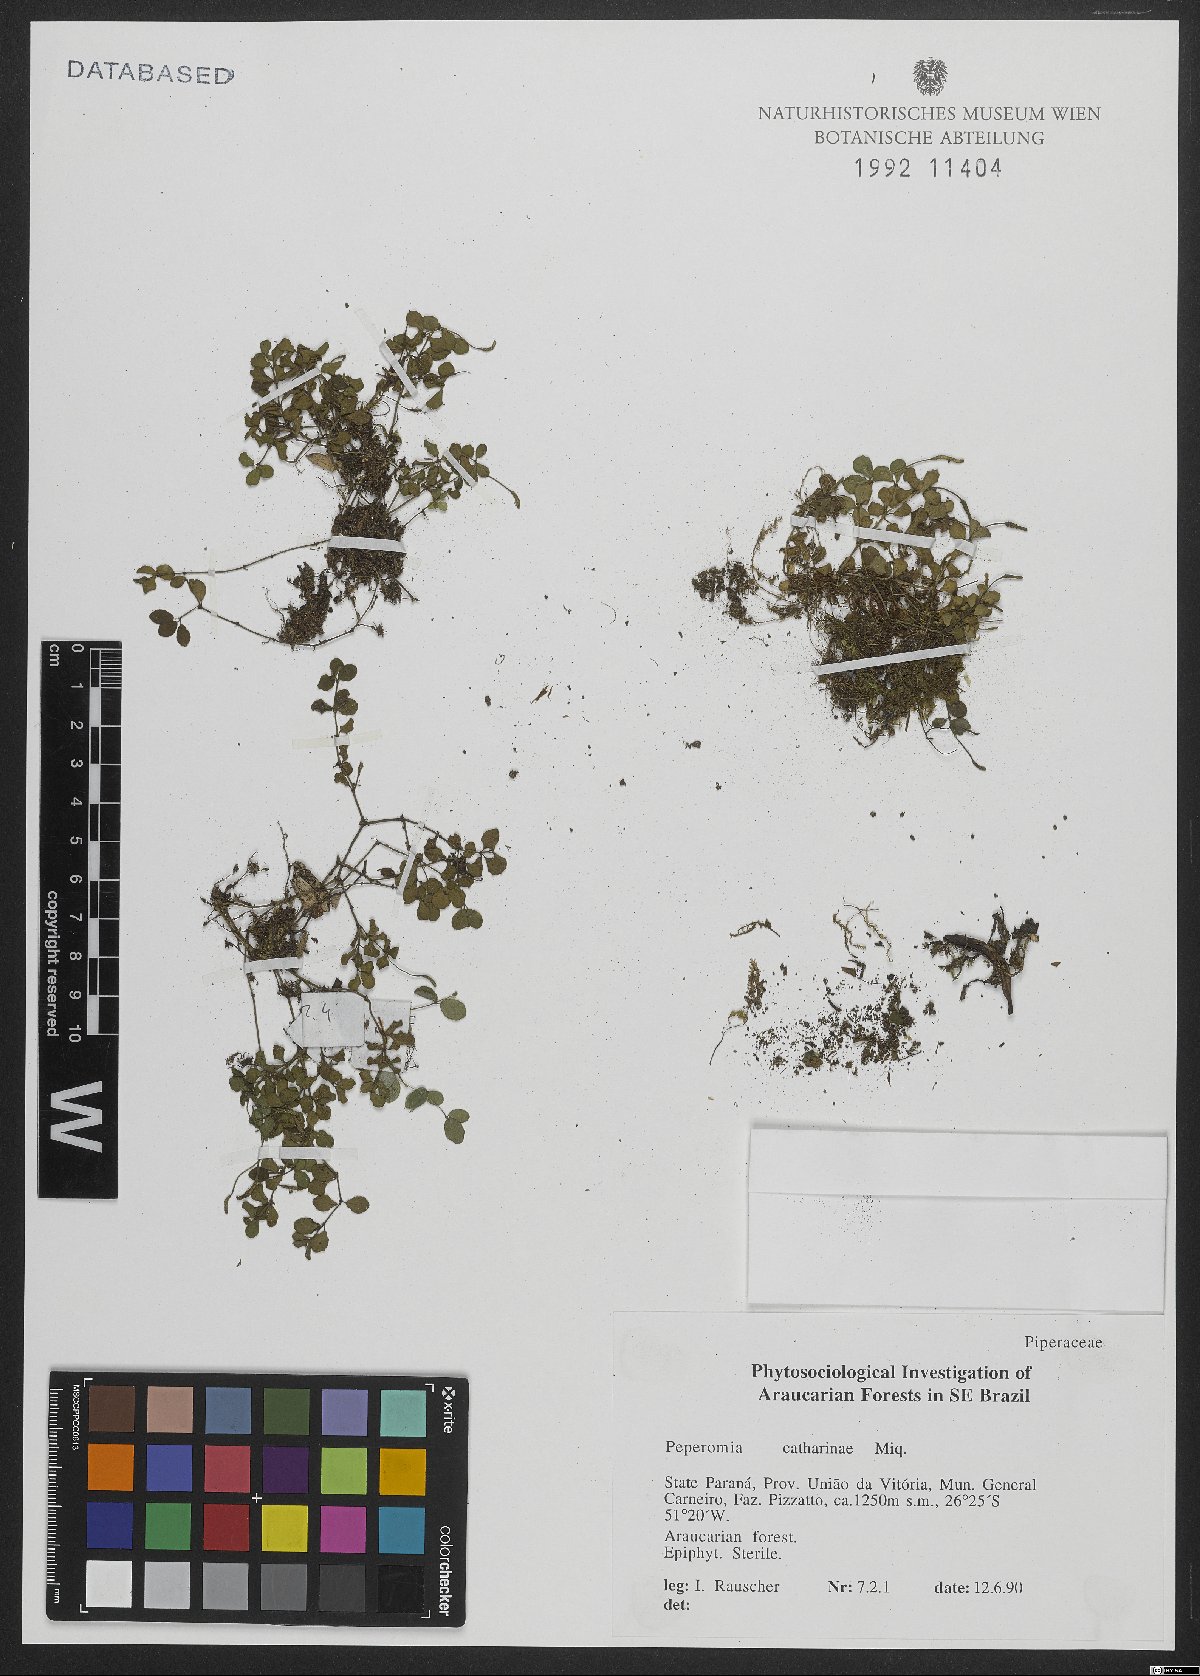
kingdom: Plantae
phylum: Tracheophyta
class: Magnoliopsida
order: Piperales
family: Piperaceae
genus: Peperomia
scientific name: Peperomia catharinae
